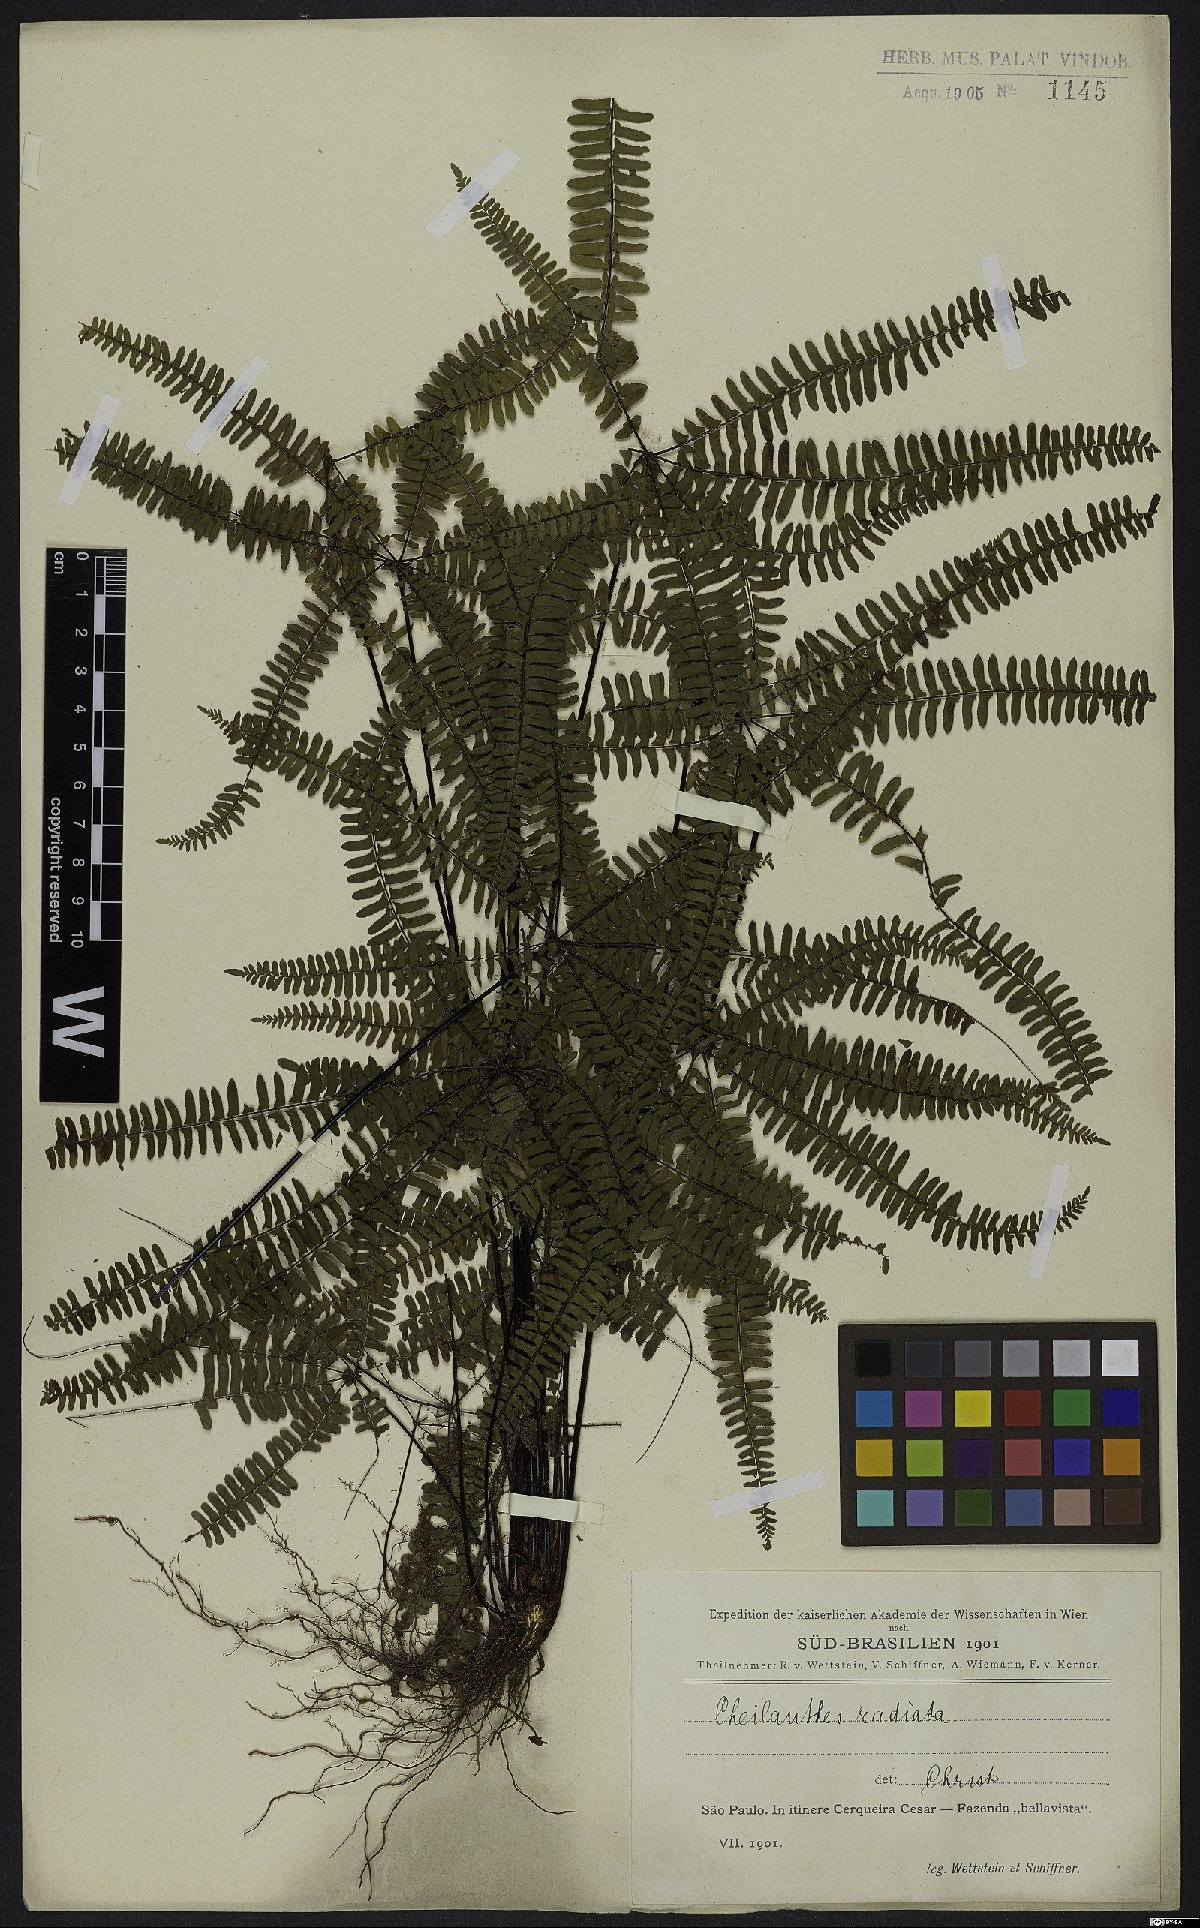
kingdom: Plantae
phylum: Tracheophyta
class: Polypodiopsida
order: Polypodiales
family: Pteridaceae
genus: Adiantopsis
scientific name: Adiantopsis radiata
